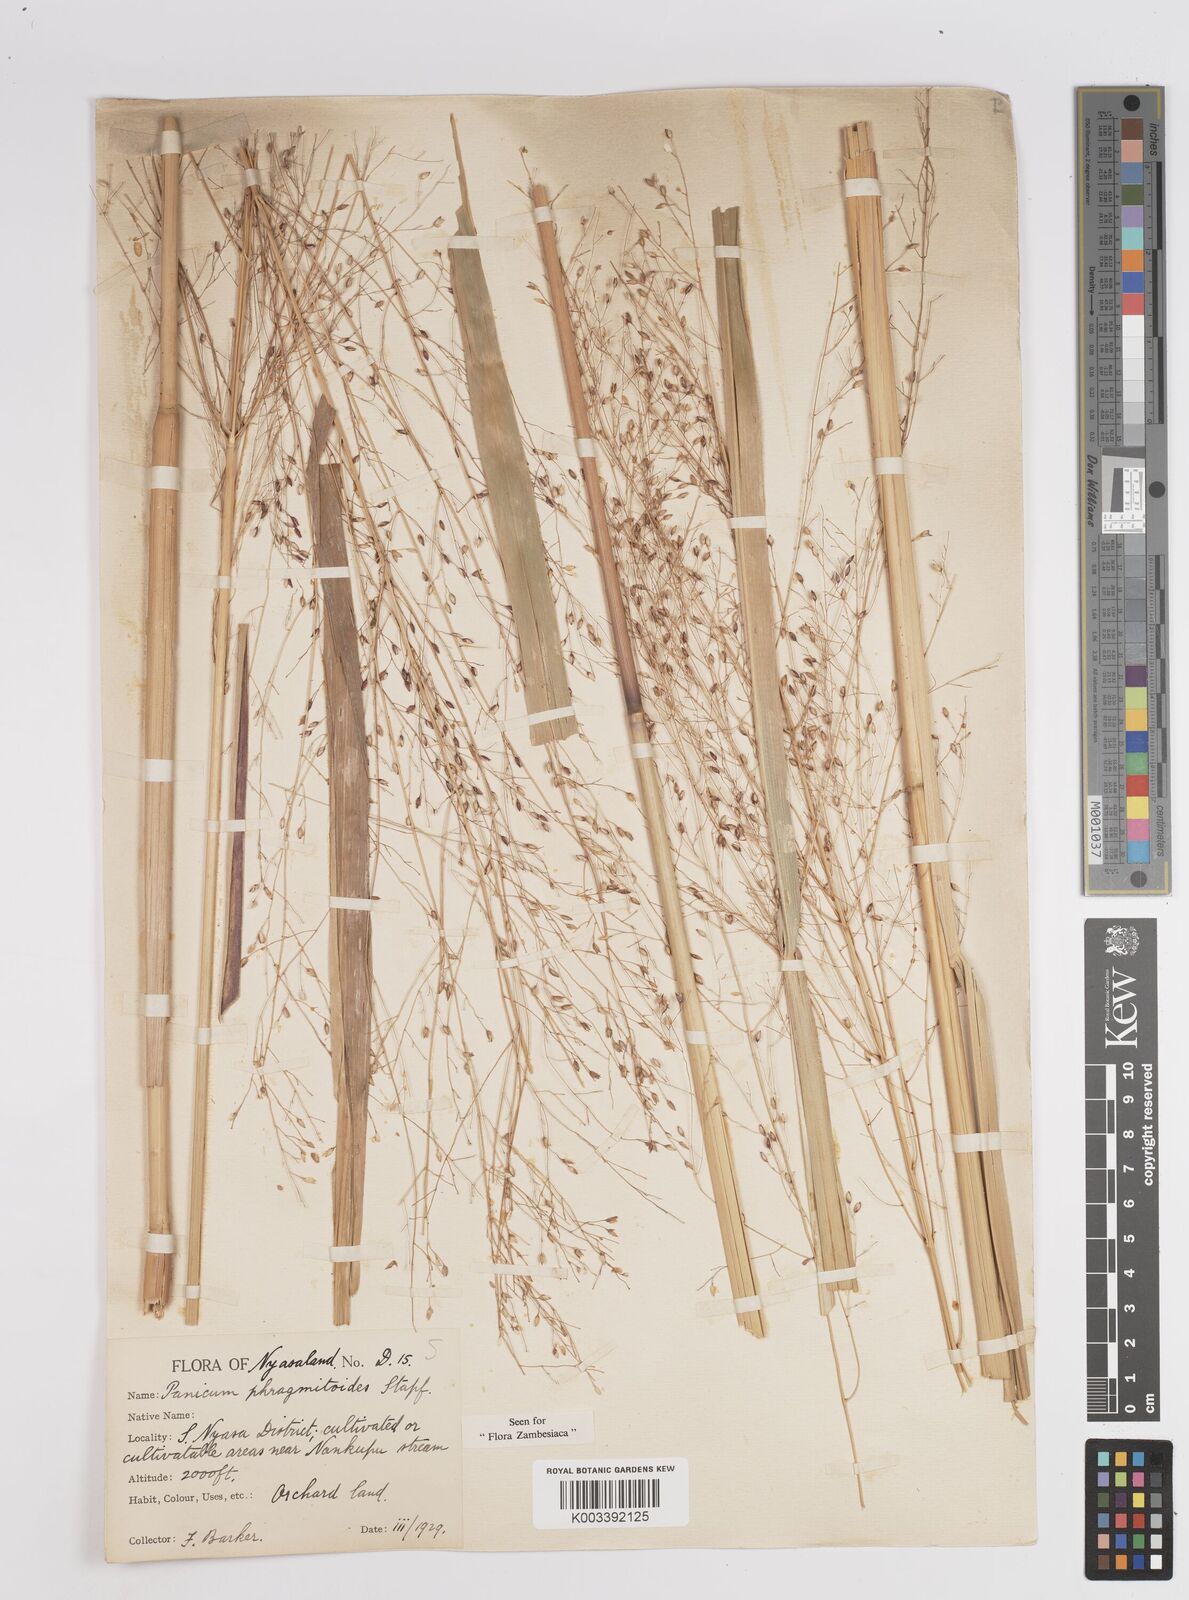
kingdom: Plantae
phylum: Tracheophyta
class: Liliopsida
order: Poales
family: Poaceae
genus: Panicum
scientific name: Panicum phragmitoides
